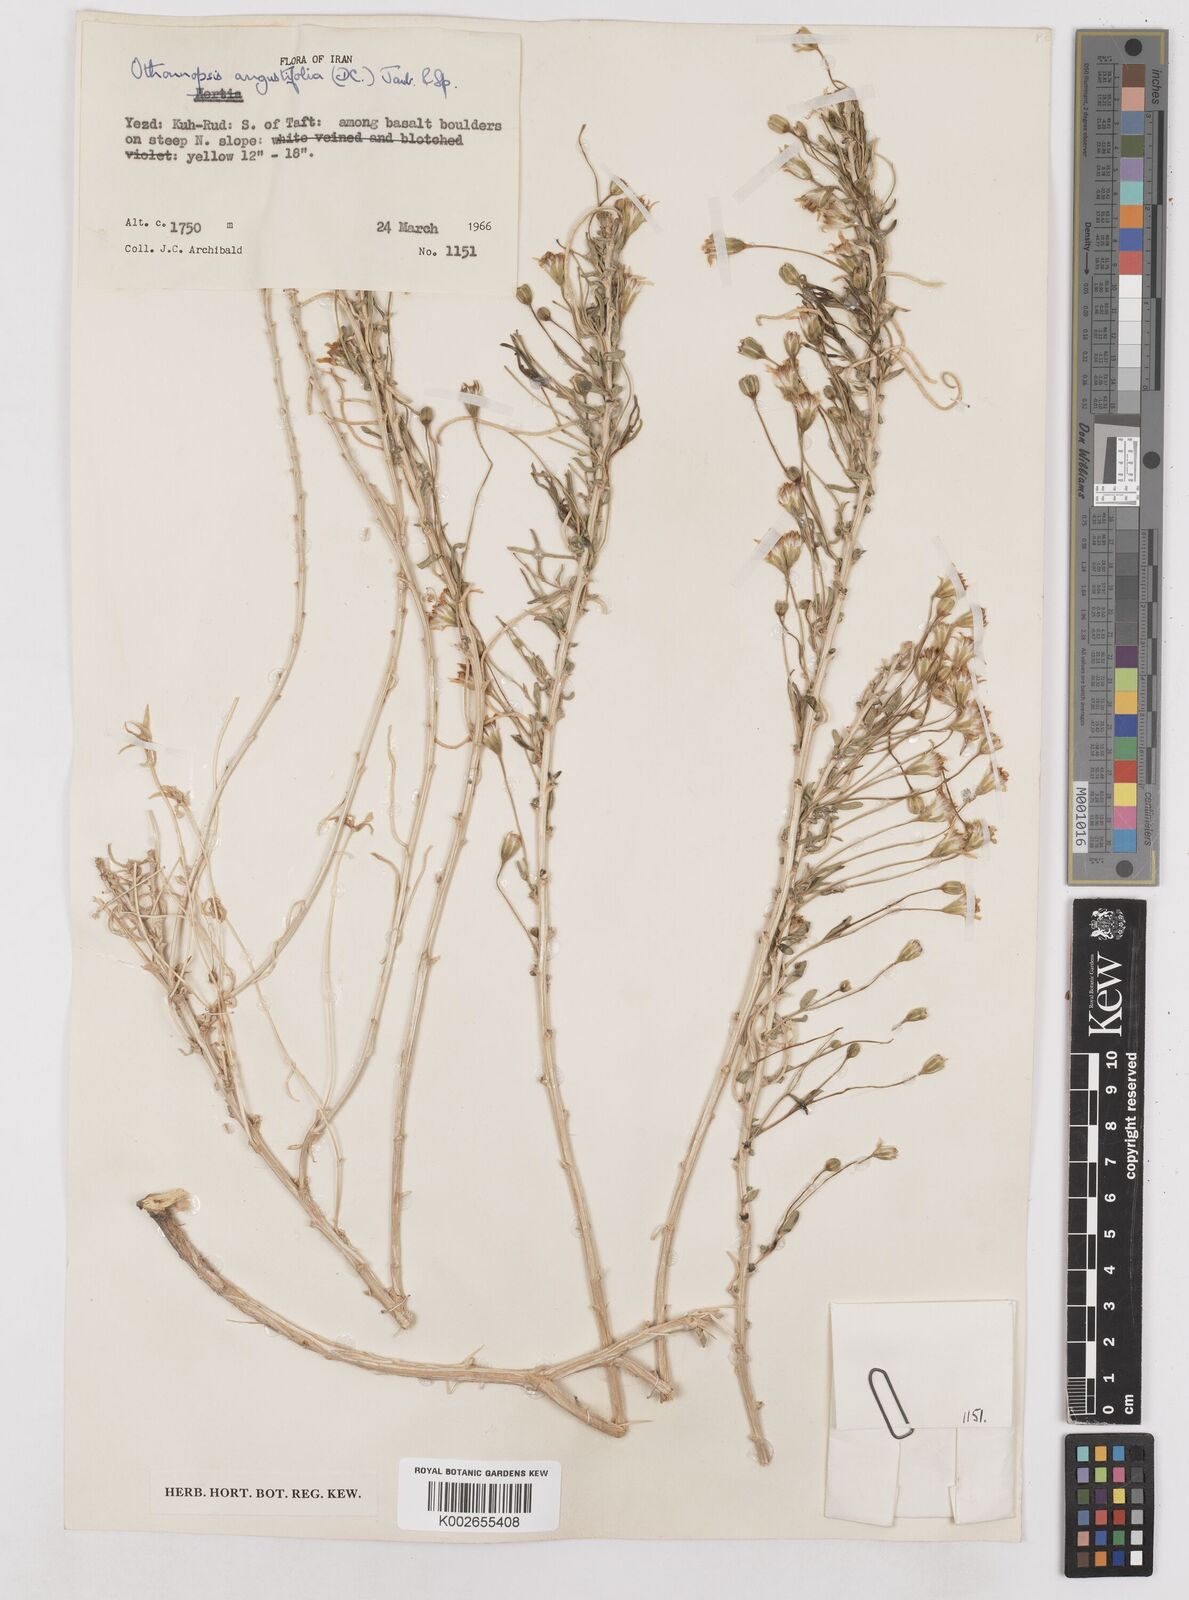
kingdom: Plantae
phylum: Tracheophyta
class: Magnoliopsida
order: Asterales
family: Asteraceae
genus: Hertia
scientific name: Hertia angustifolia
